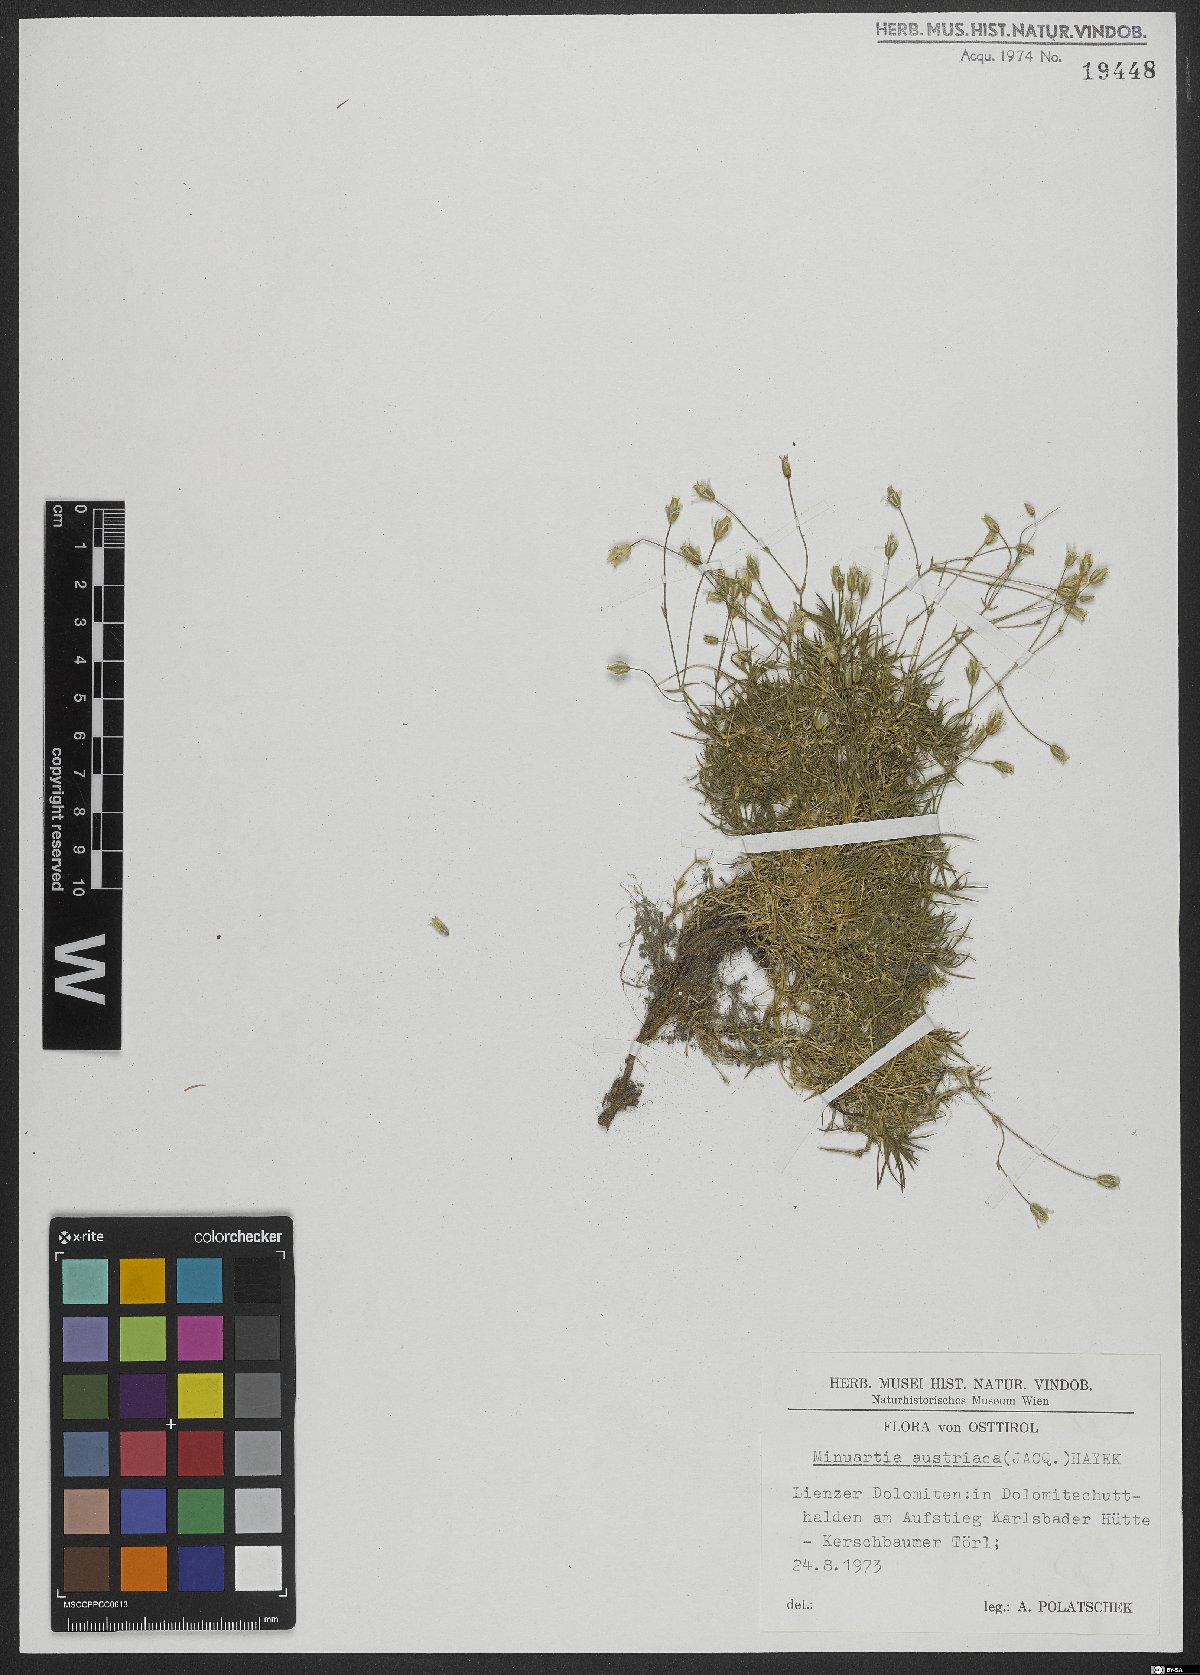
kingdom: Plantae
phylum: Tracheophyta
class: Magnoliopsida
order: Caryophyllales
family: Caryophyllaceae
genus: Sabulina
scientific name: Sabulina austriaca
